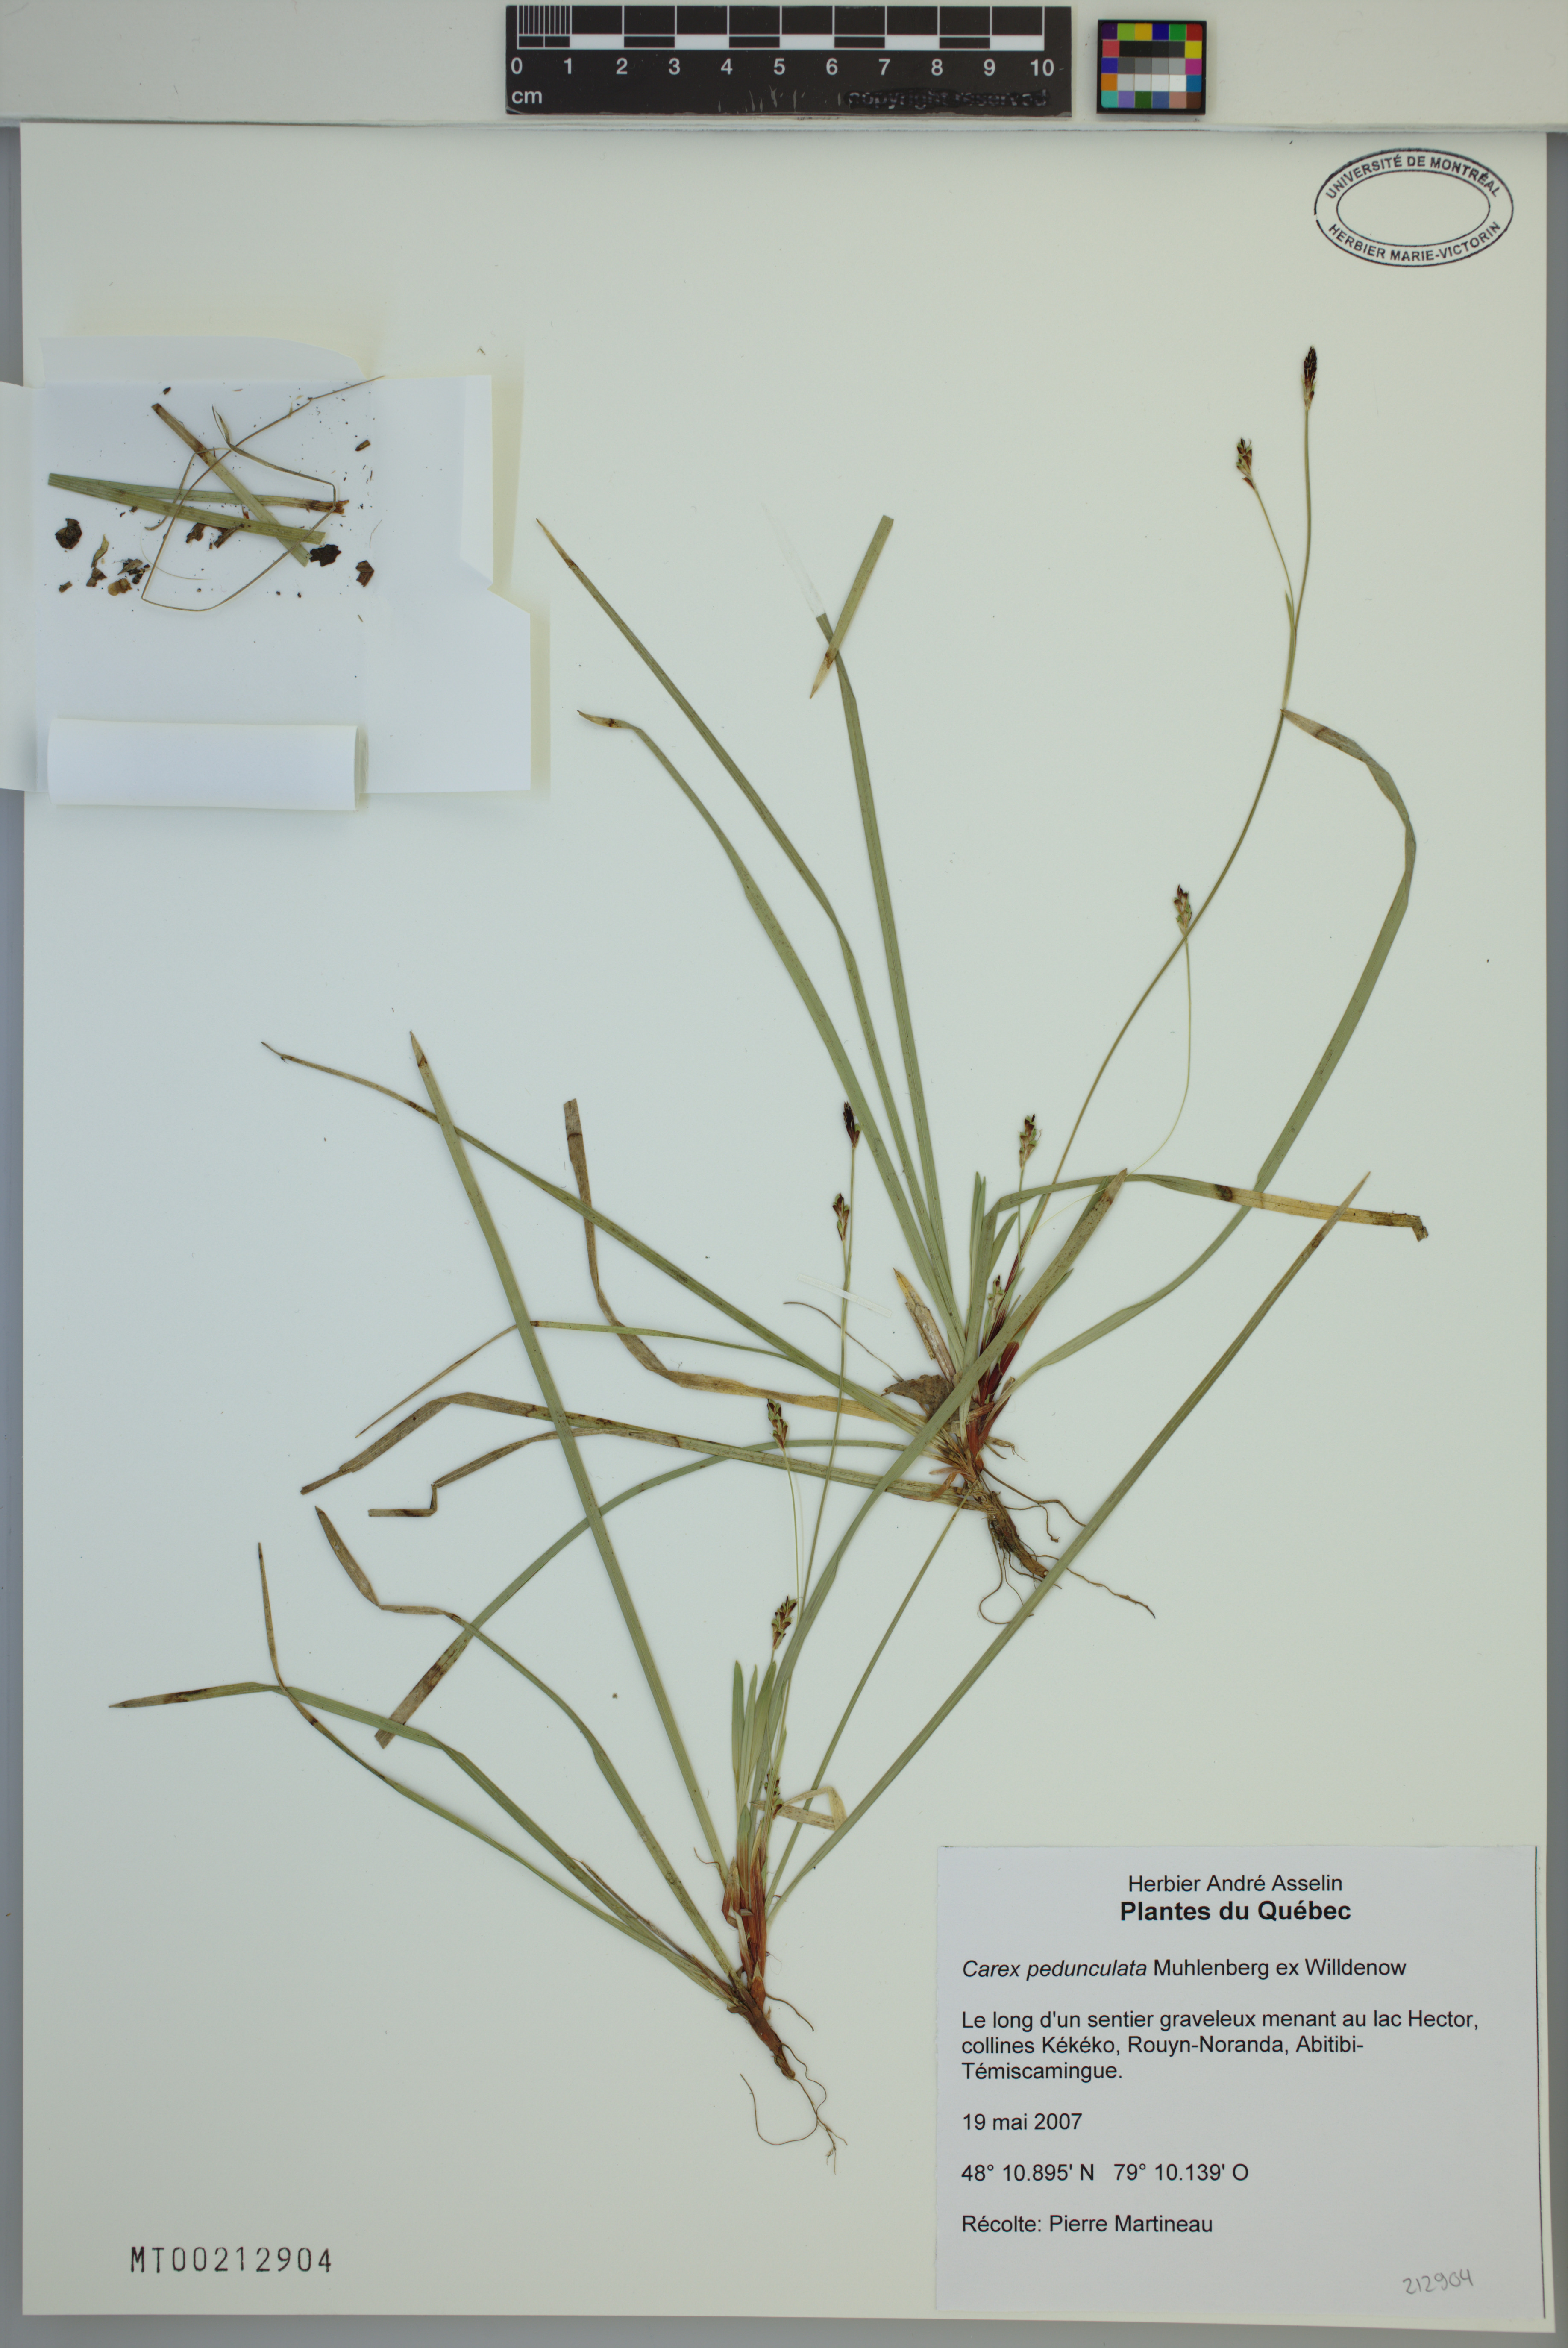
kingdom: Plantae
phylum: Tracheophyta
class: Liliopsida
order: Poales
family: Cyperaceae
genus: Carex
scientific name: Carex pedunculata
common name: Pedunculate sedge
